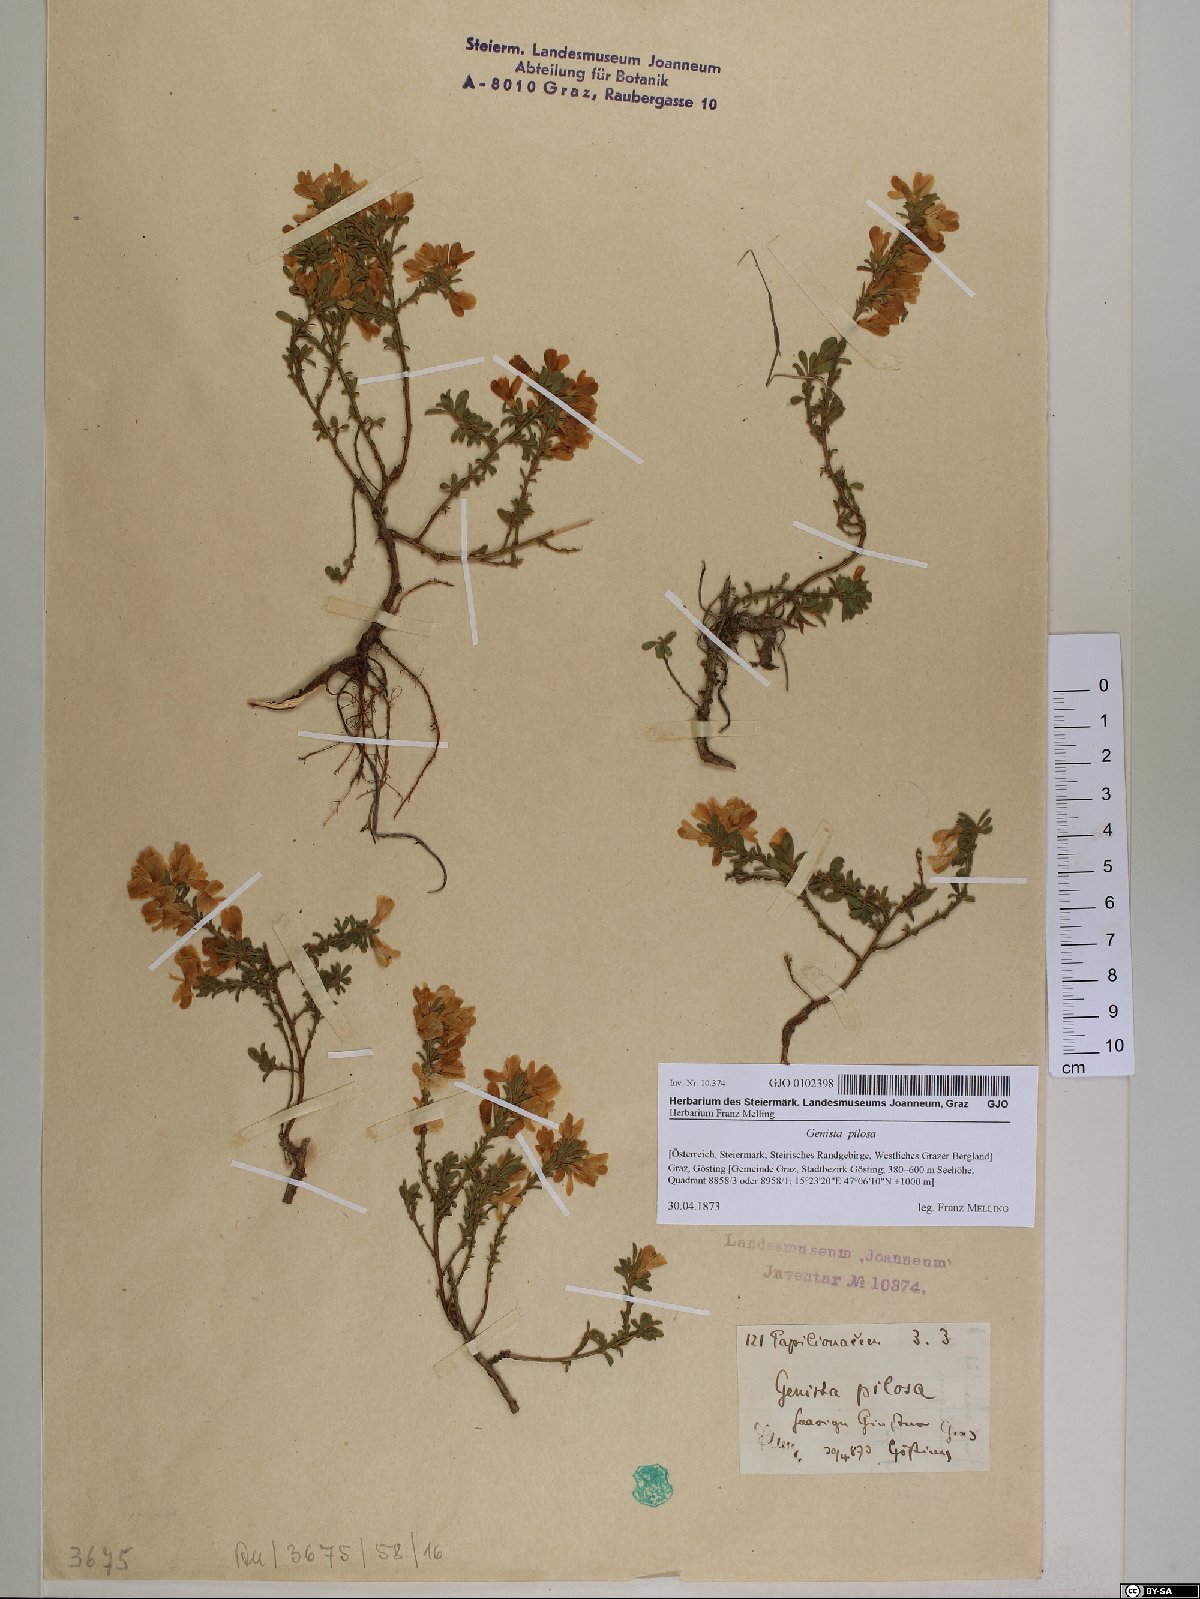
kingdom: Plantae
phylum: Tracheophyta
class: Magnoliopsida
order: Fabales
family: Fabaceae
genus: Genista
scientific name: Genista pilosa
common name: Hairy greenweed
